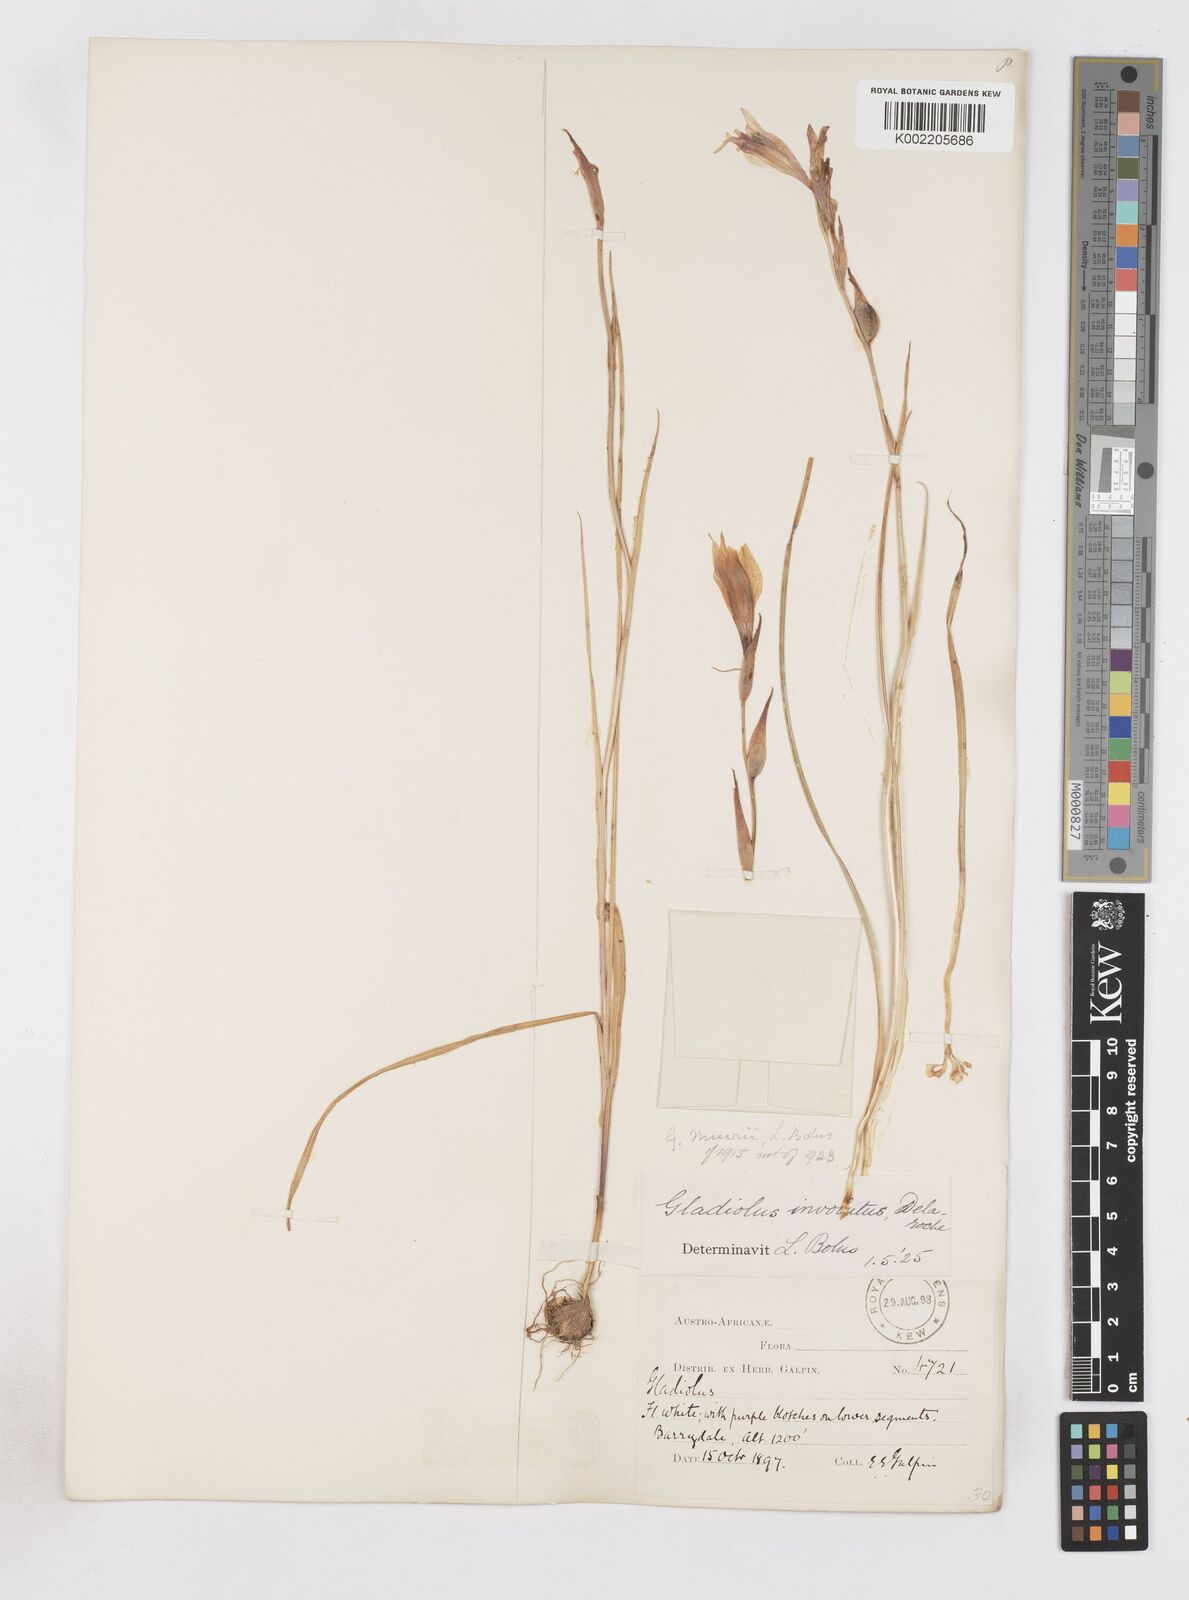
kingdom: Plantae
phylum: Tracheophyta
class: Liliopsida
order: Asparagales
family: Iridaceae
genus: Gladiolus
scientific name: Gladiolus involutus
